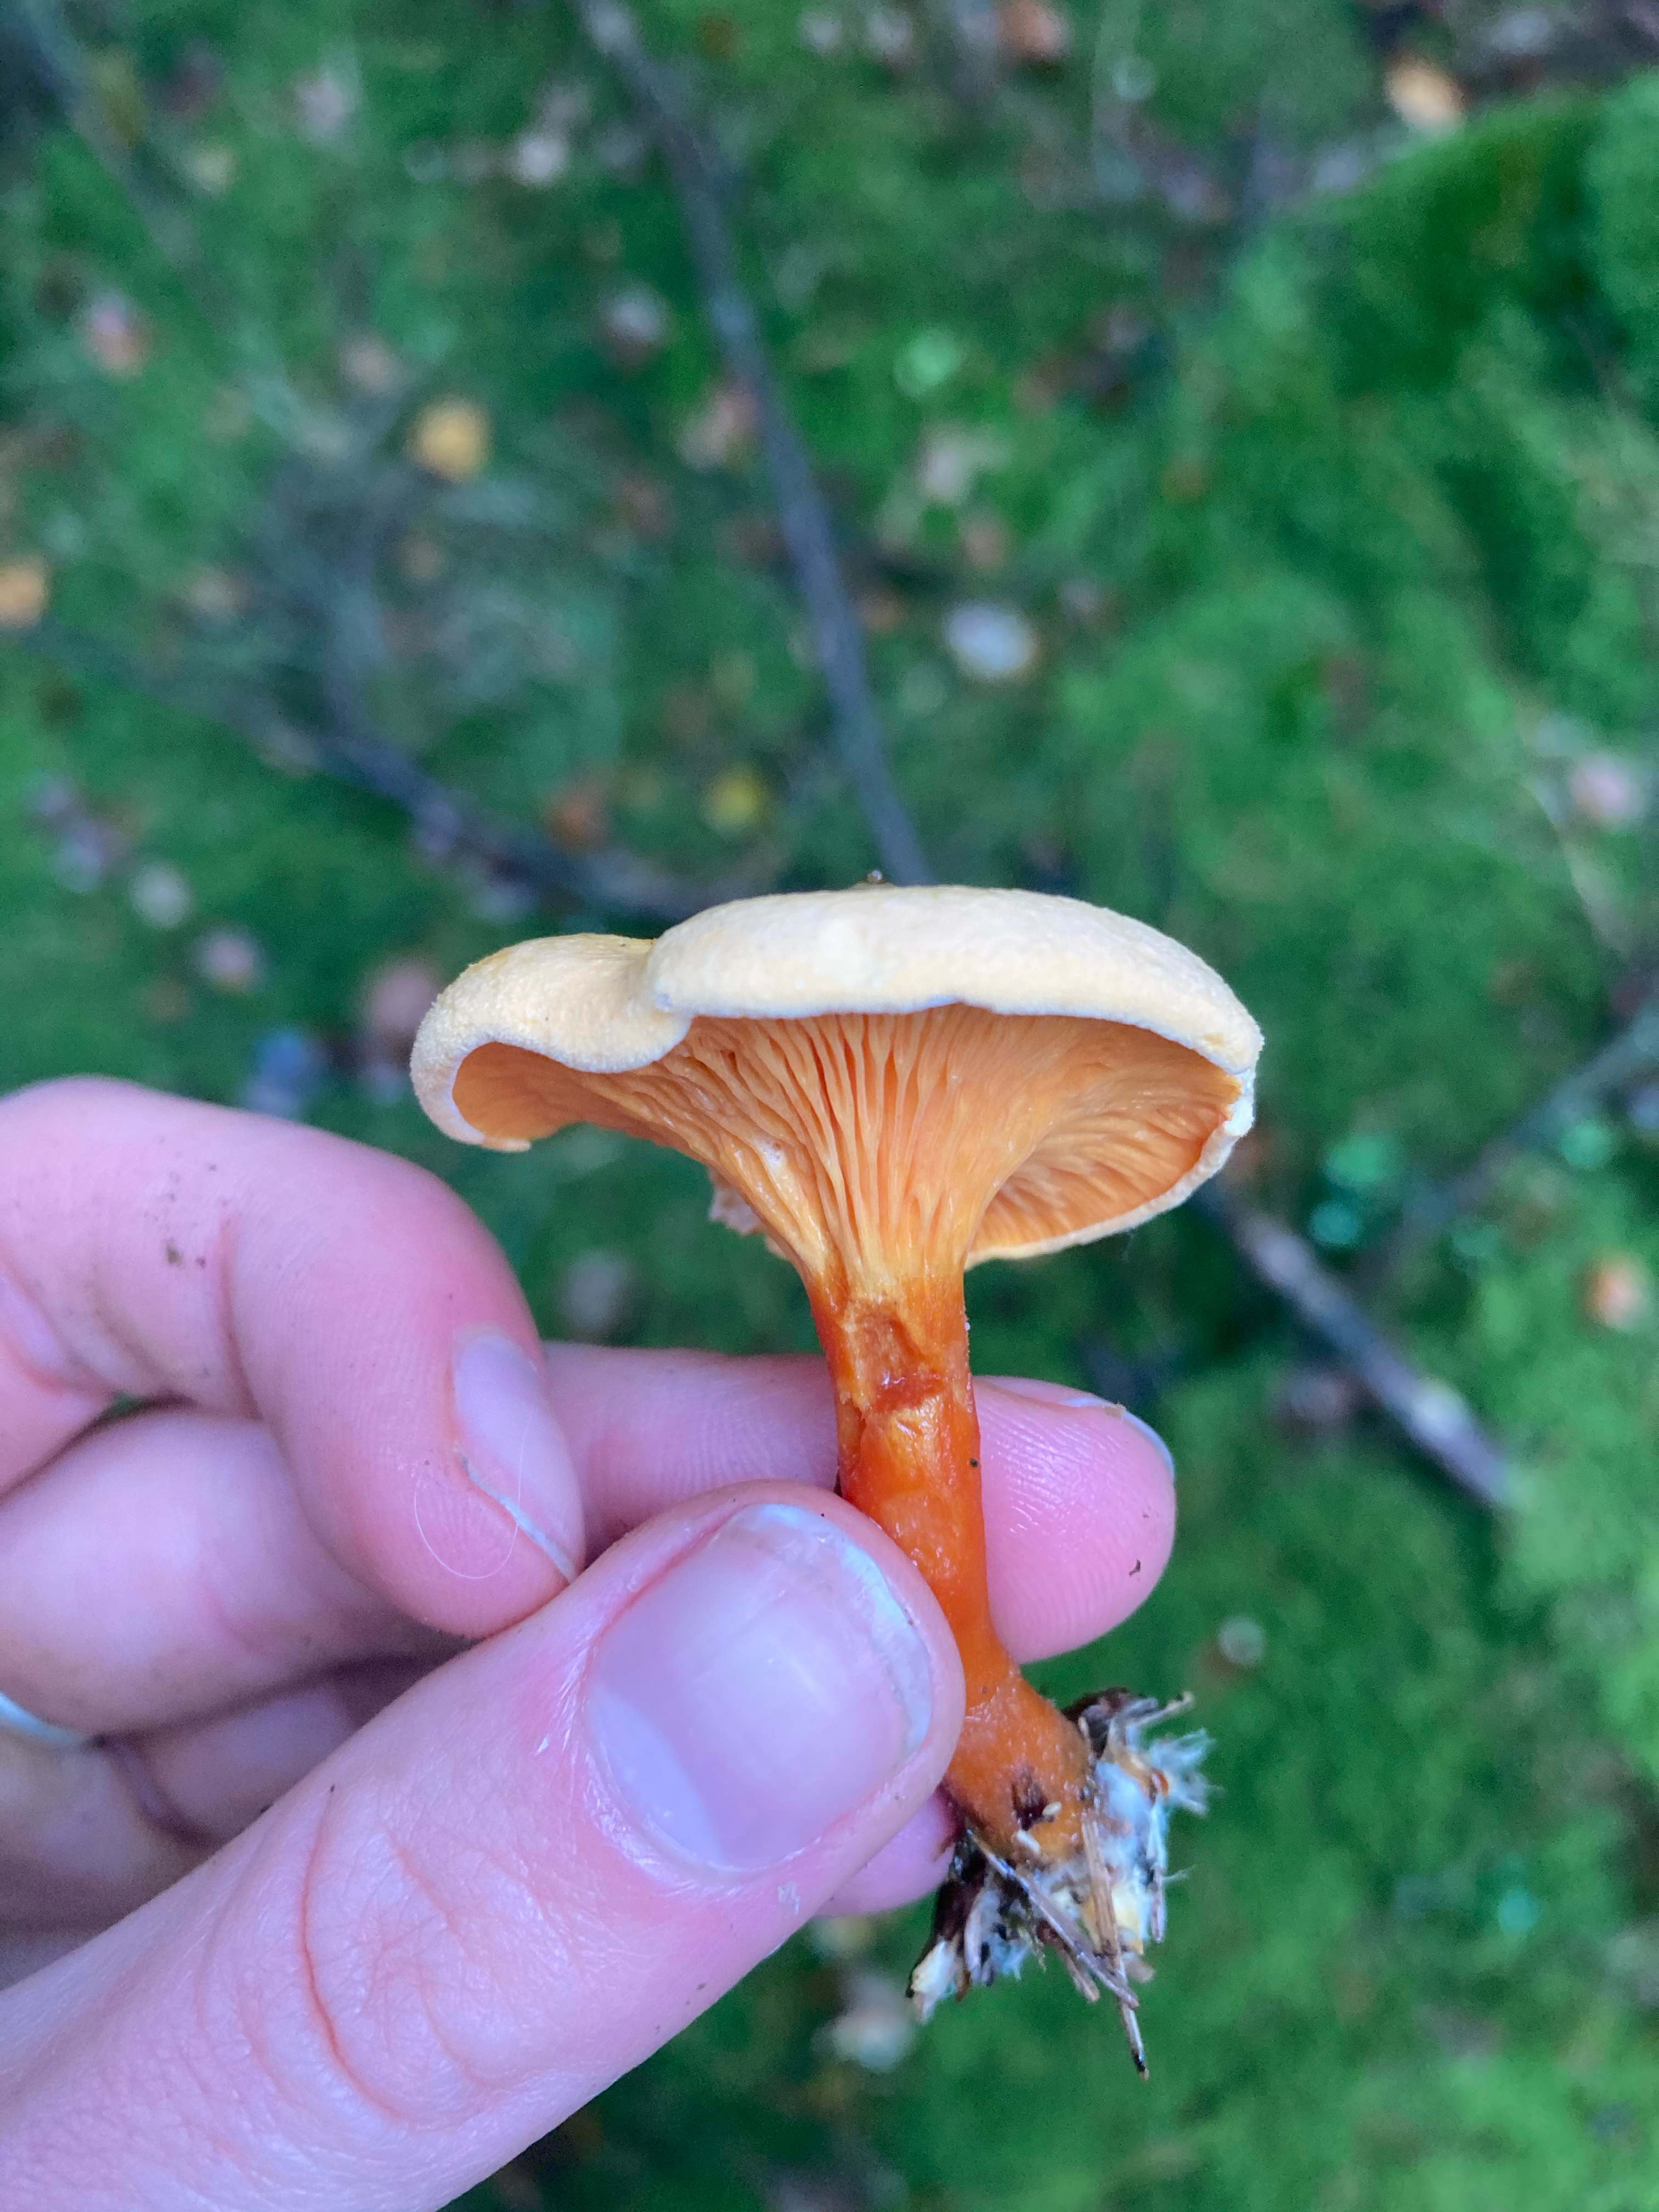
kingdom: Fungi
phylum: Basidiomycota
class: Agaricomycetes
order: Boletales
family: Hygrophoropsidaceae
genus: Hygrophoropsis
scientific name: Hygrophoropsis aurantiaca
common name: almindelig orangekantarel
